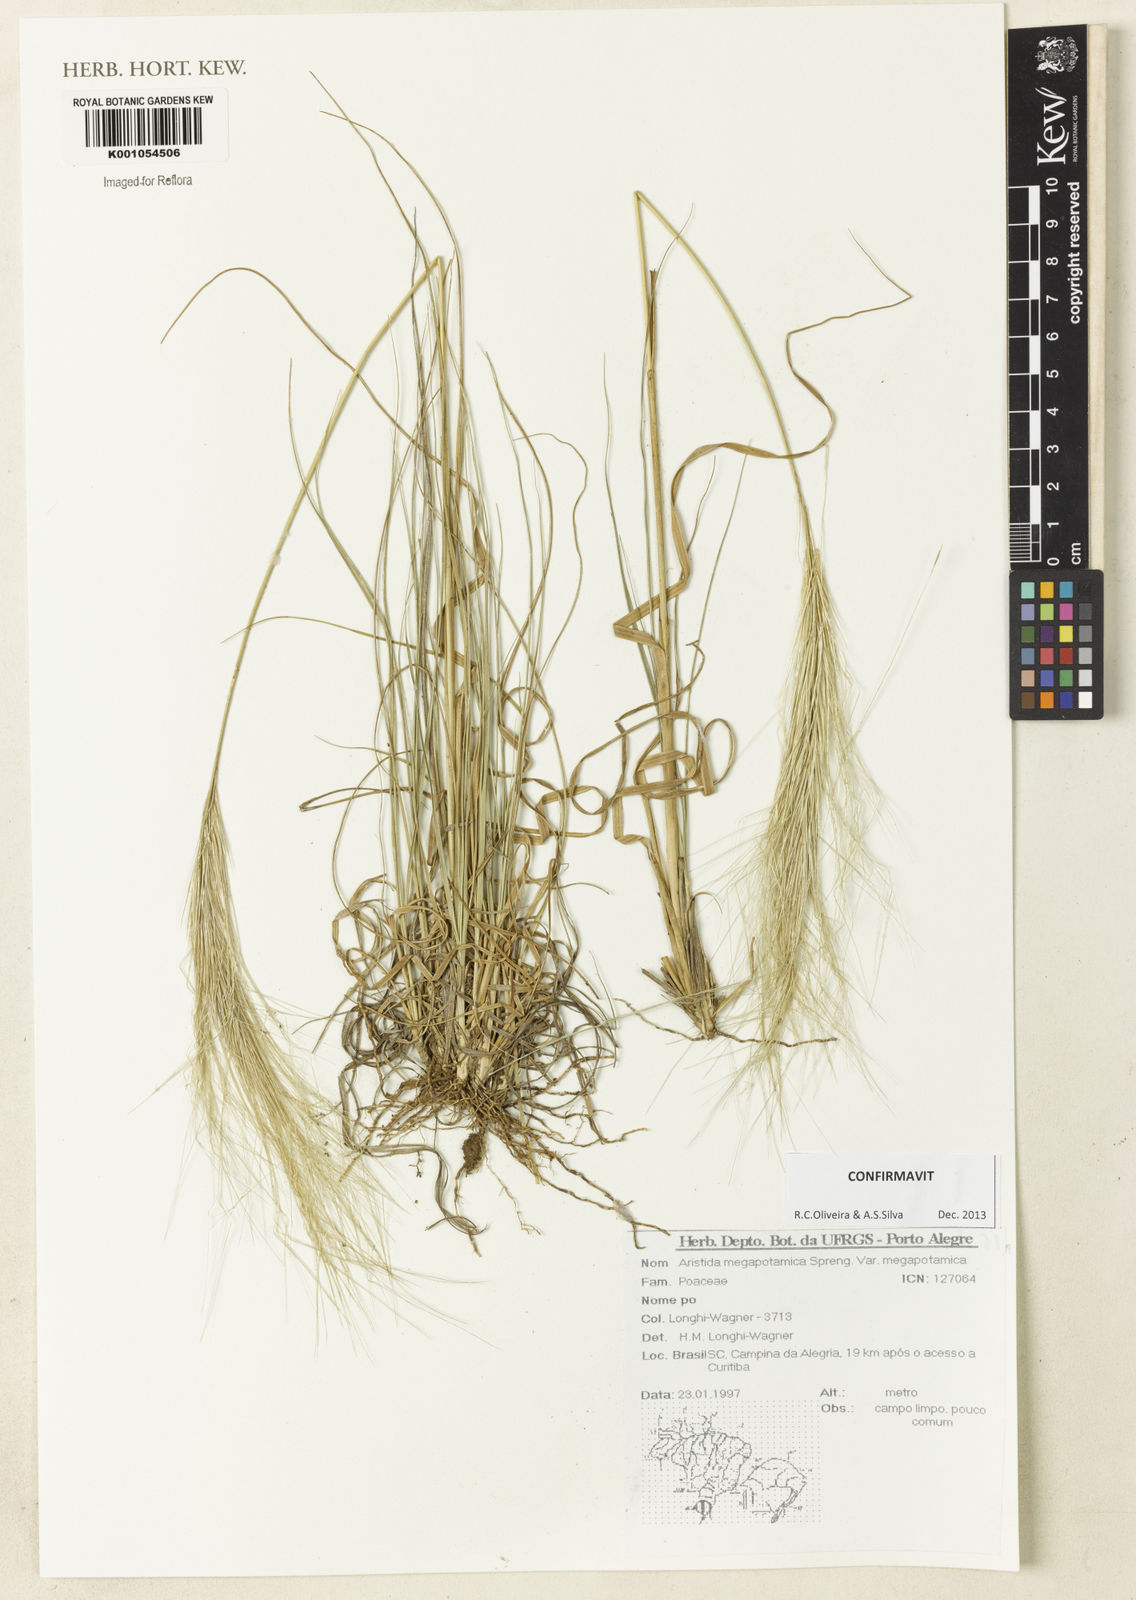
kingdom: Plantae
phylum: Tracheophyta
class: Liliopsida
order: Poales
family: Poaceae
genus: Aristida
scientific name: Aristida megapotamica
